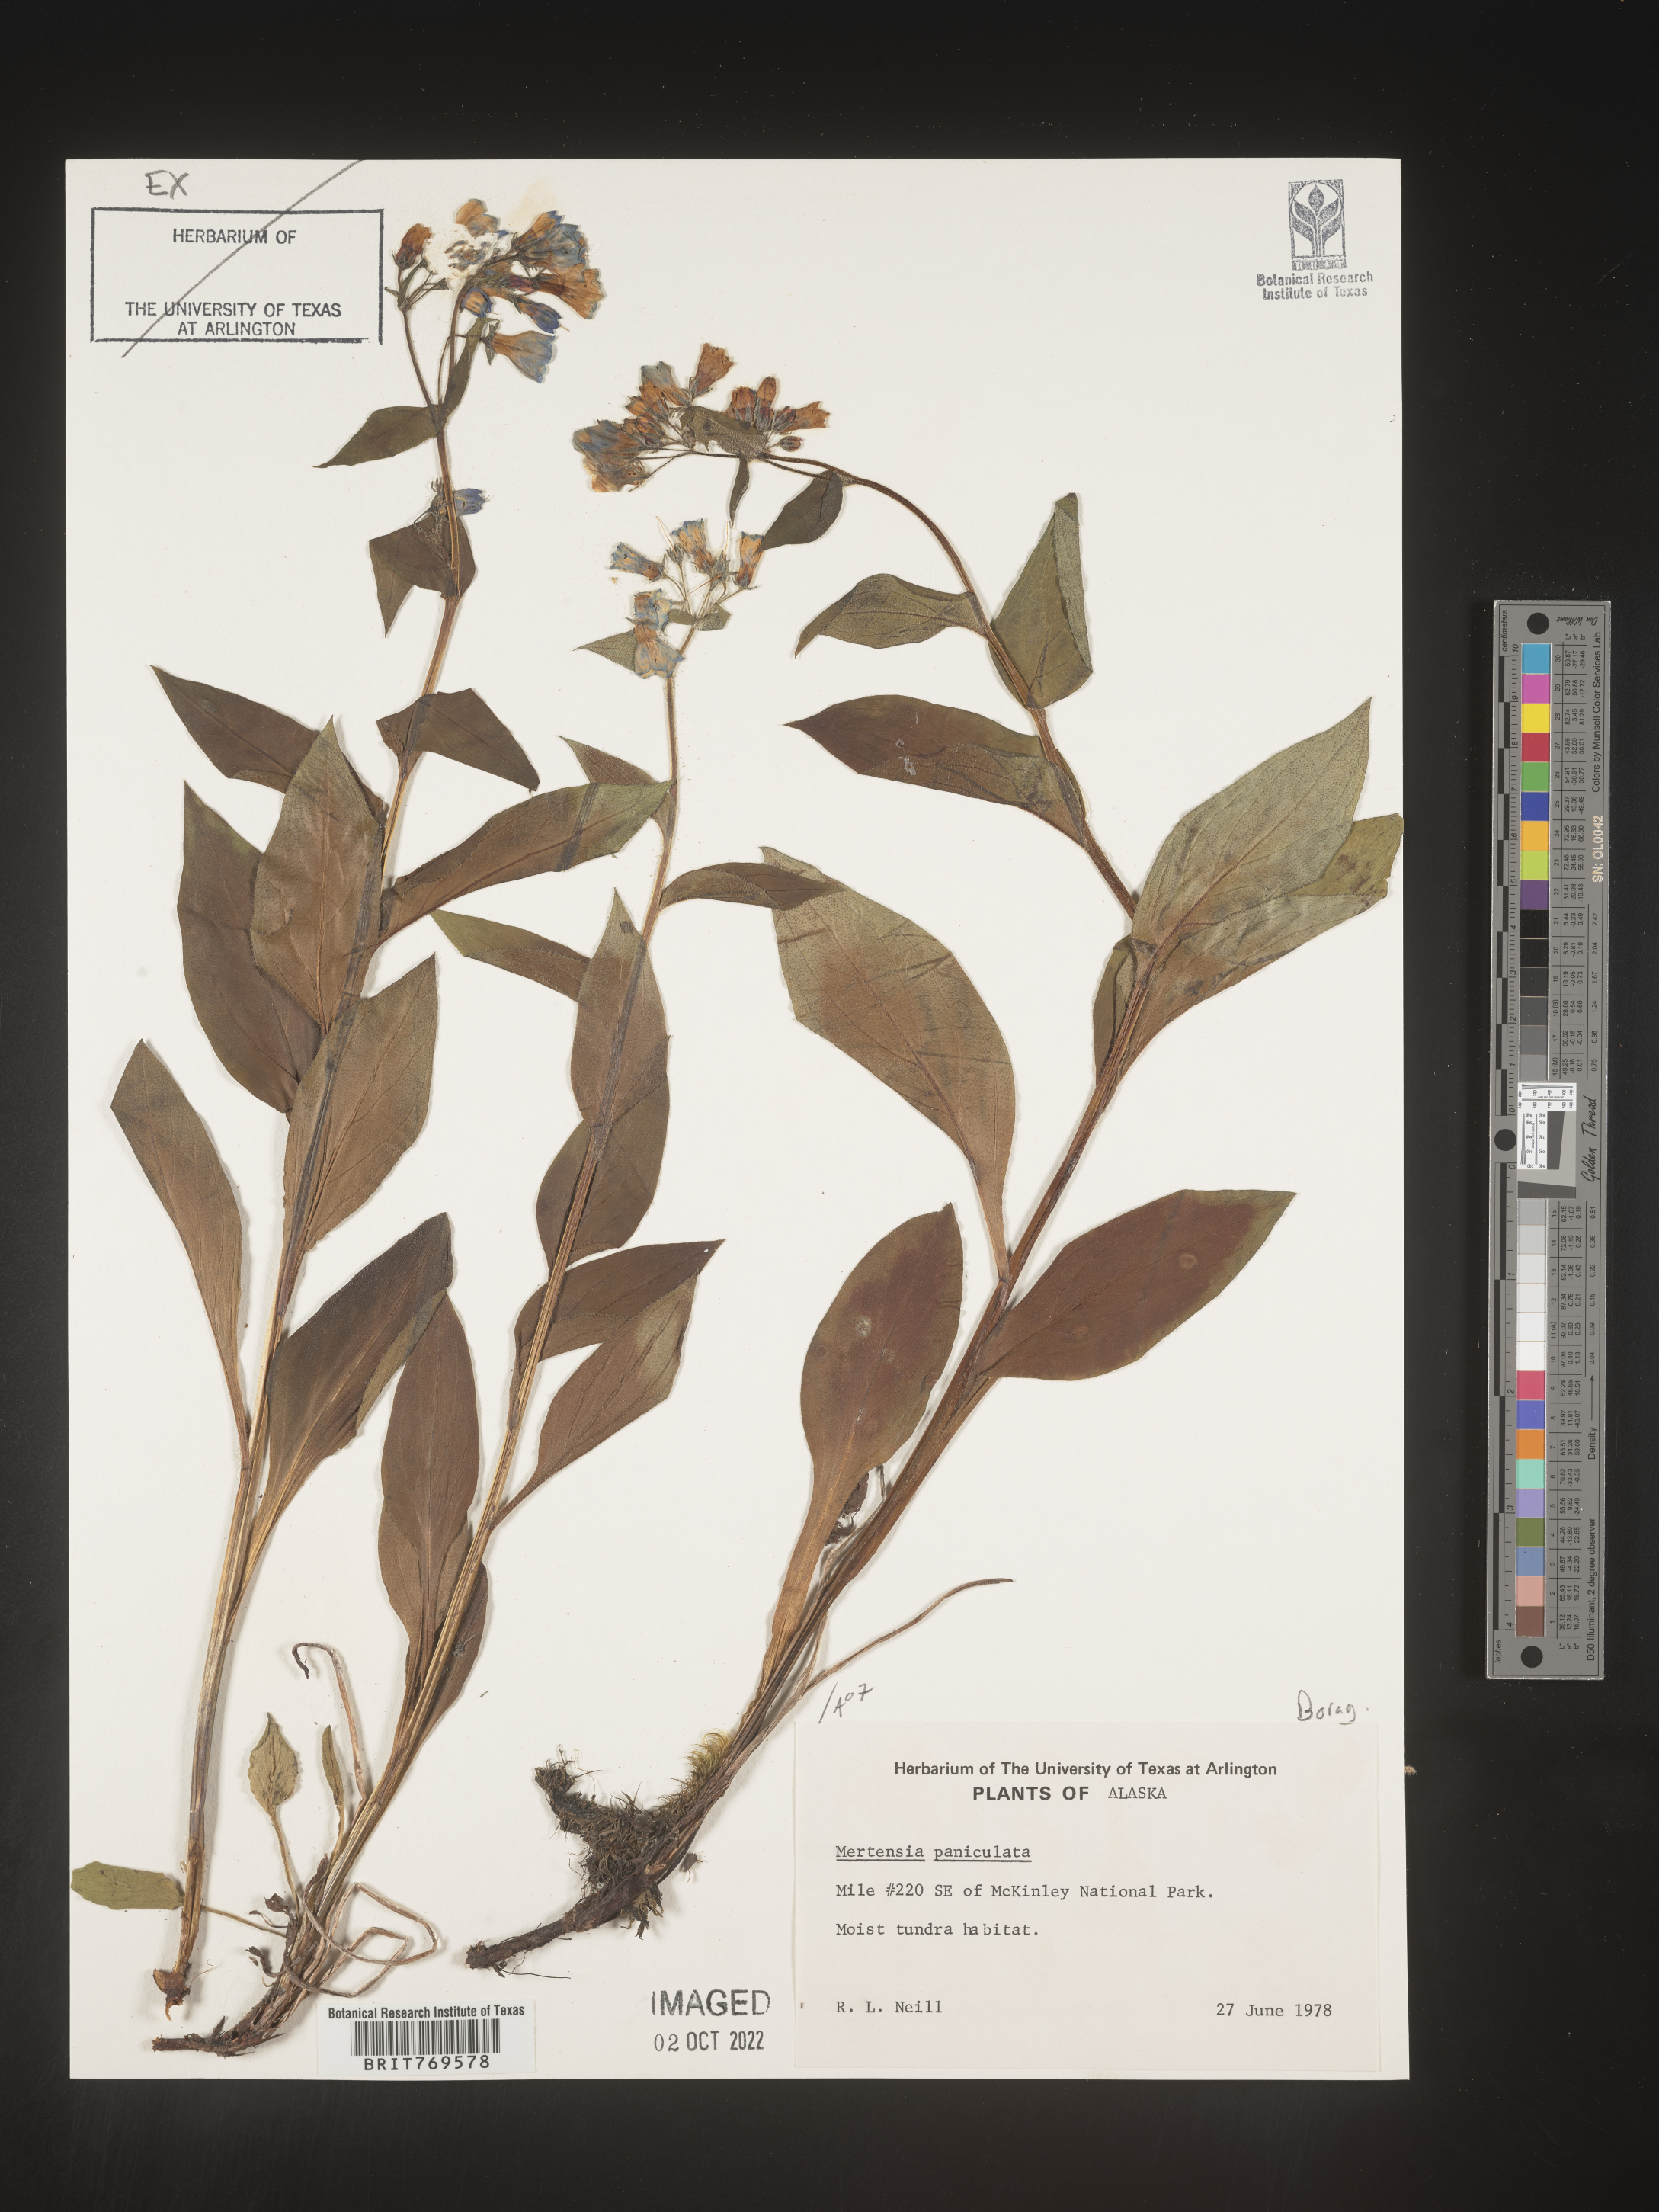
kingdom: Plantae
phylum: Tracheophyta
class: Magnoliopsida
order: Boraginales
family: Boraginaceae
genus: Mertensia
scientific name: Mertensia
